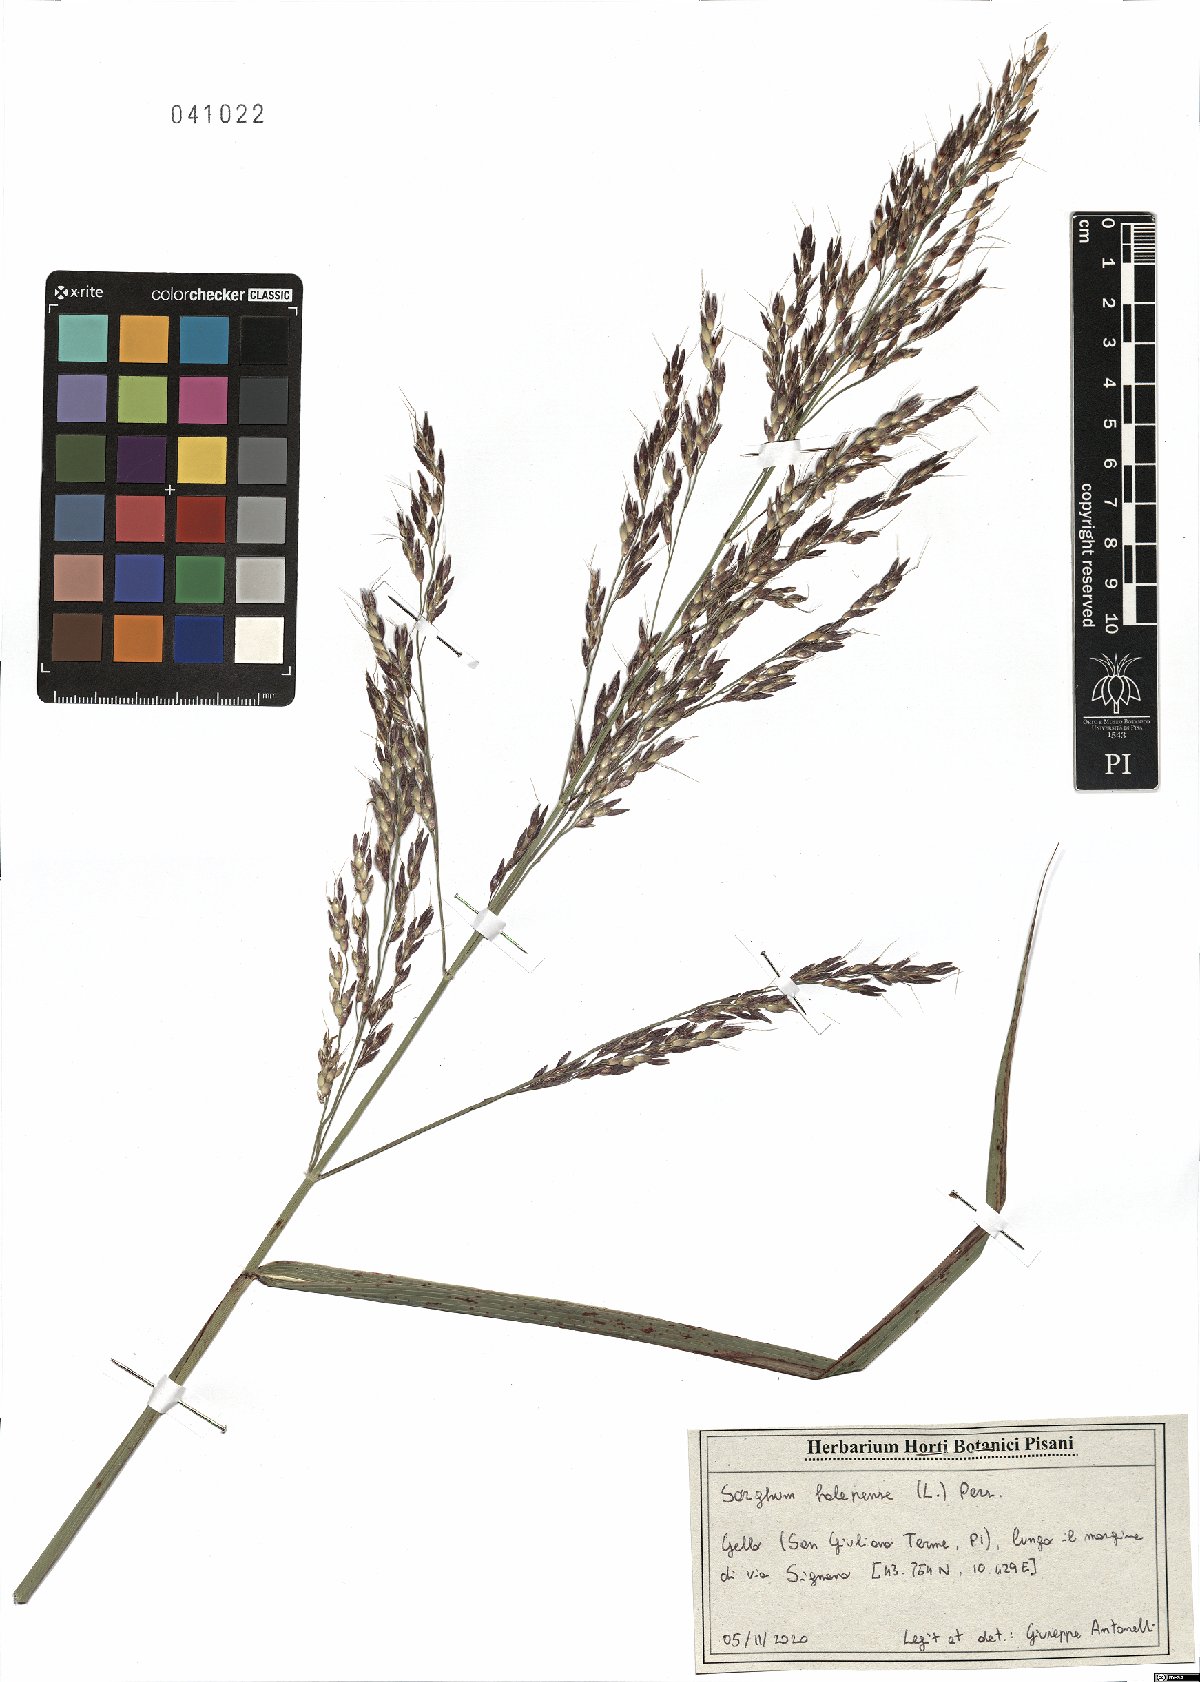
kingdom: Plantae
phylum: Tracheophyta
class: Liliopsida
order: Poales
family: Poaceae
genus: Sorghum
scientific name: Sorghum halepense
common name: Johnson-grass
